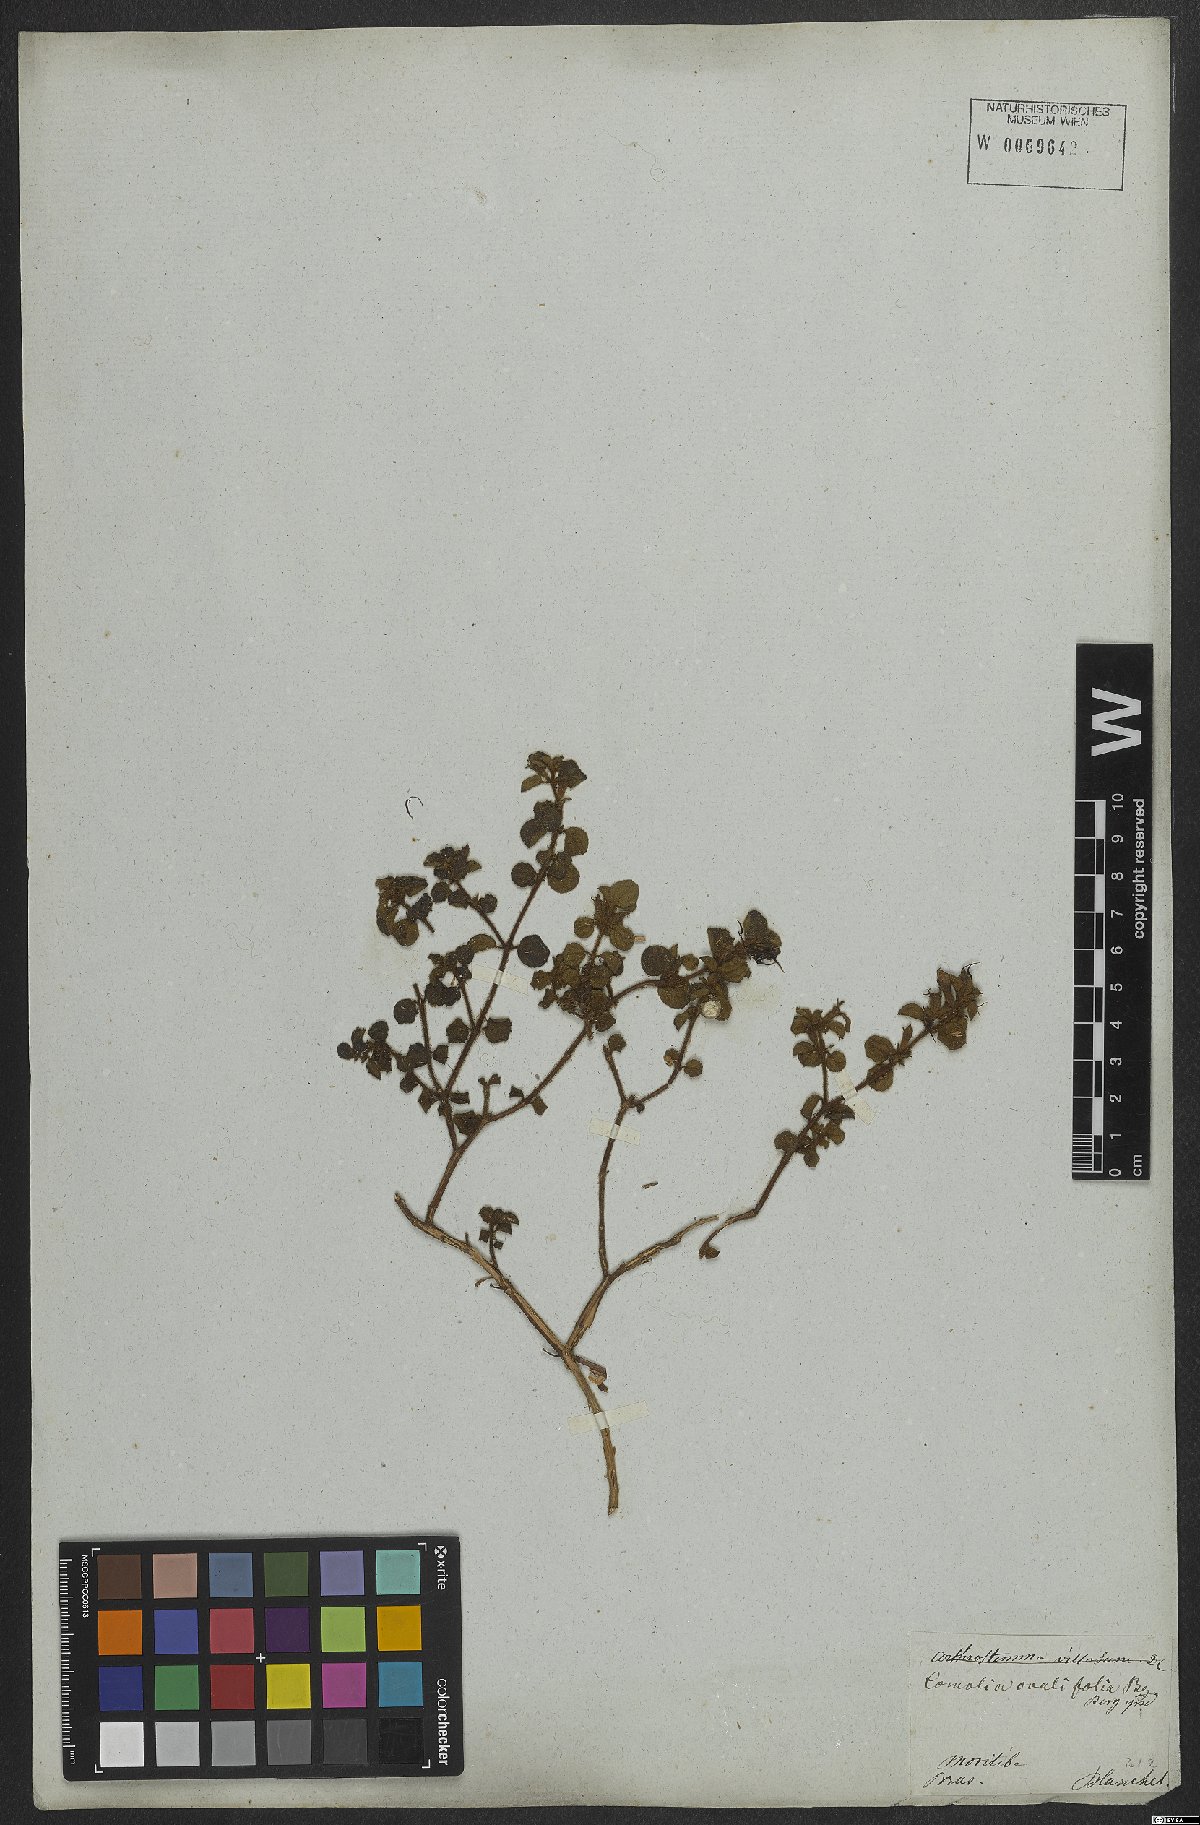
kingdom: Plantae
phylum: Tracheophyta
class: Magnoliopsida
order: Myrtales
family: Melastomataceae
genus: Comolia
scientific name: Comolia ovalifolia
